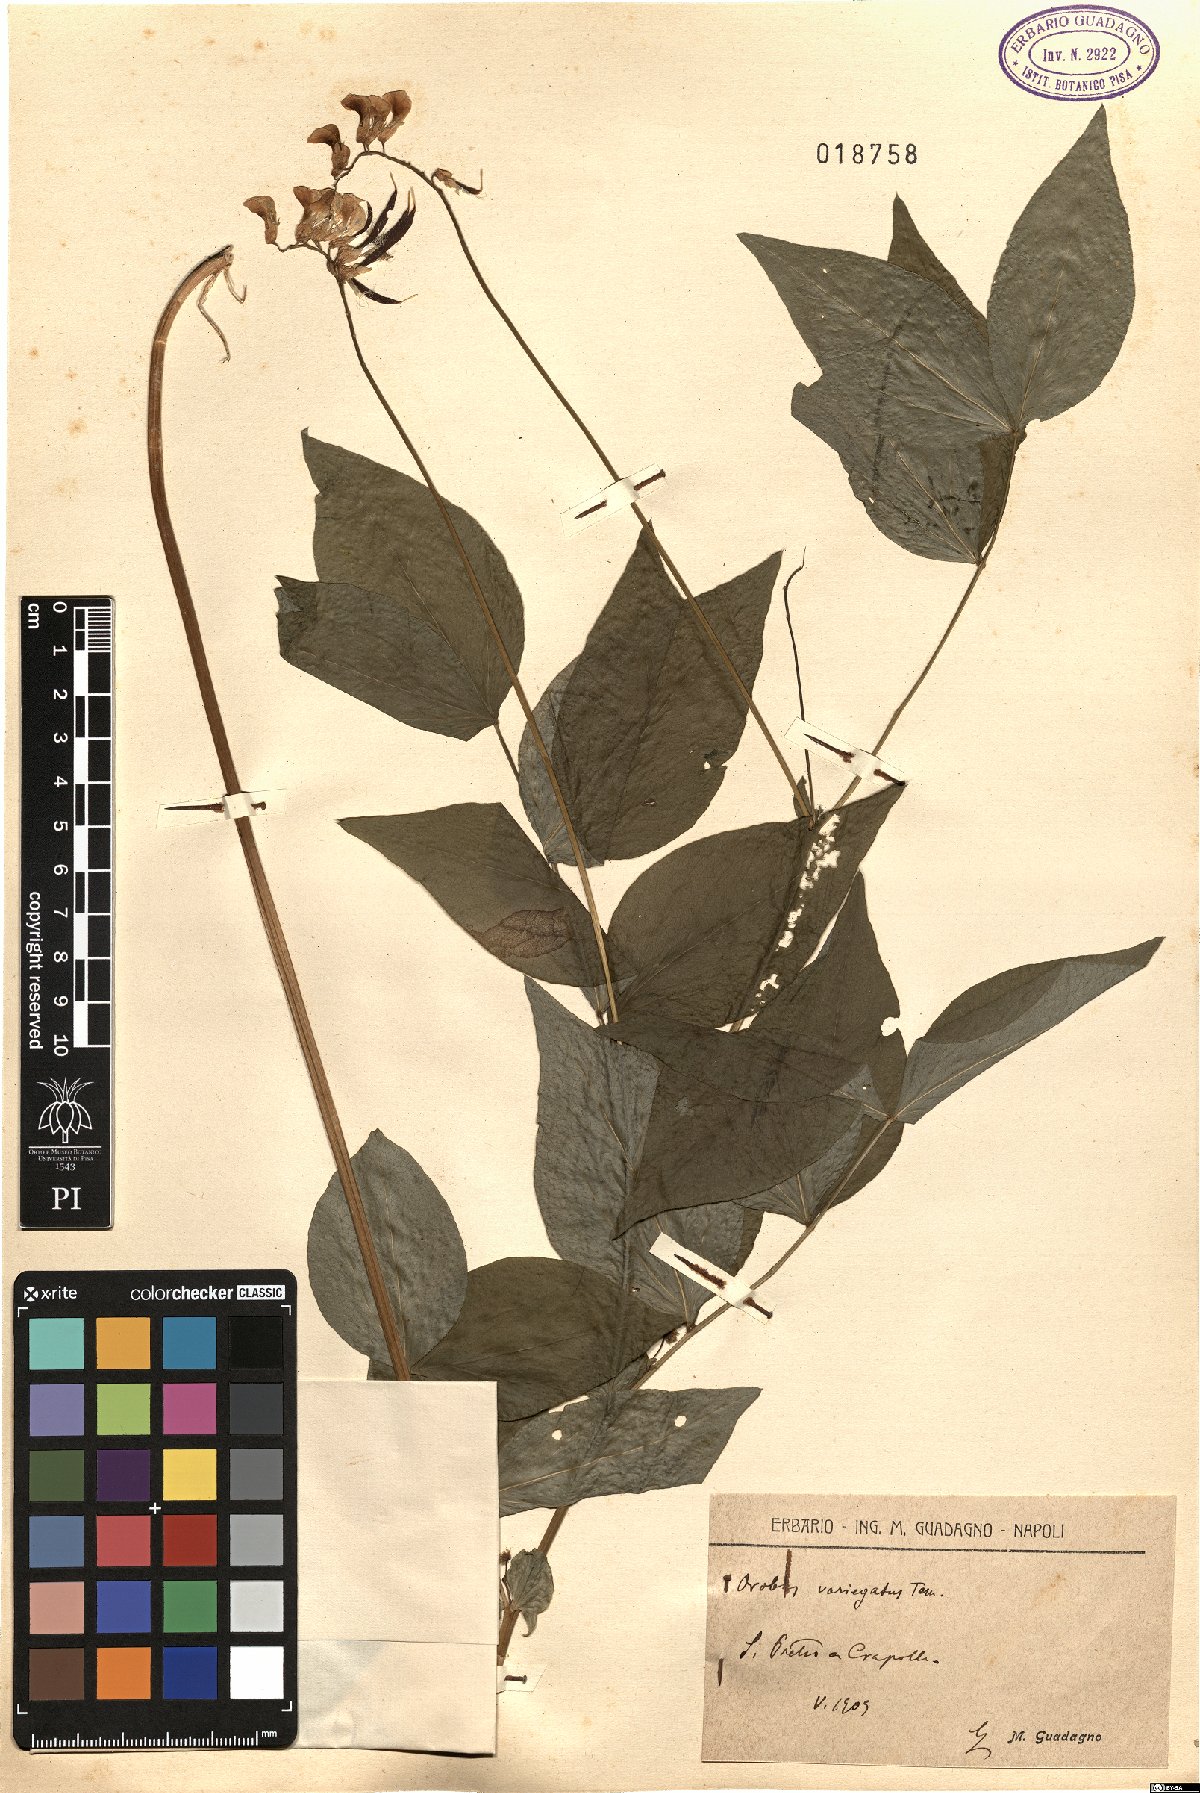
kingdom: Plantae
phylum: Tracheophyta
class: Magnoliopsida
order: Fabales
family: Fabaceae
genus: Lathyrus
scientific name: Lathyrus venetus
